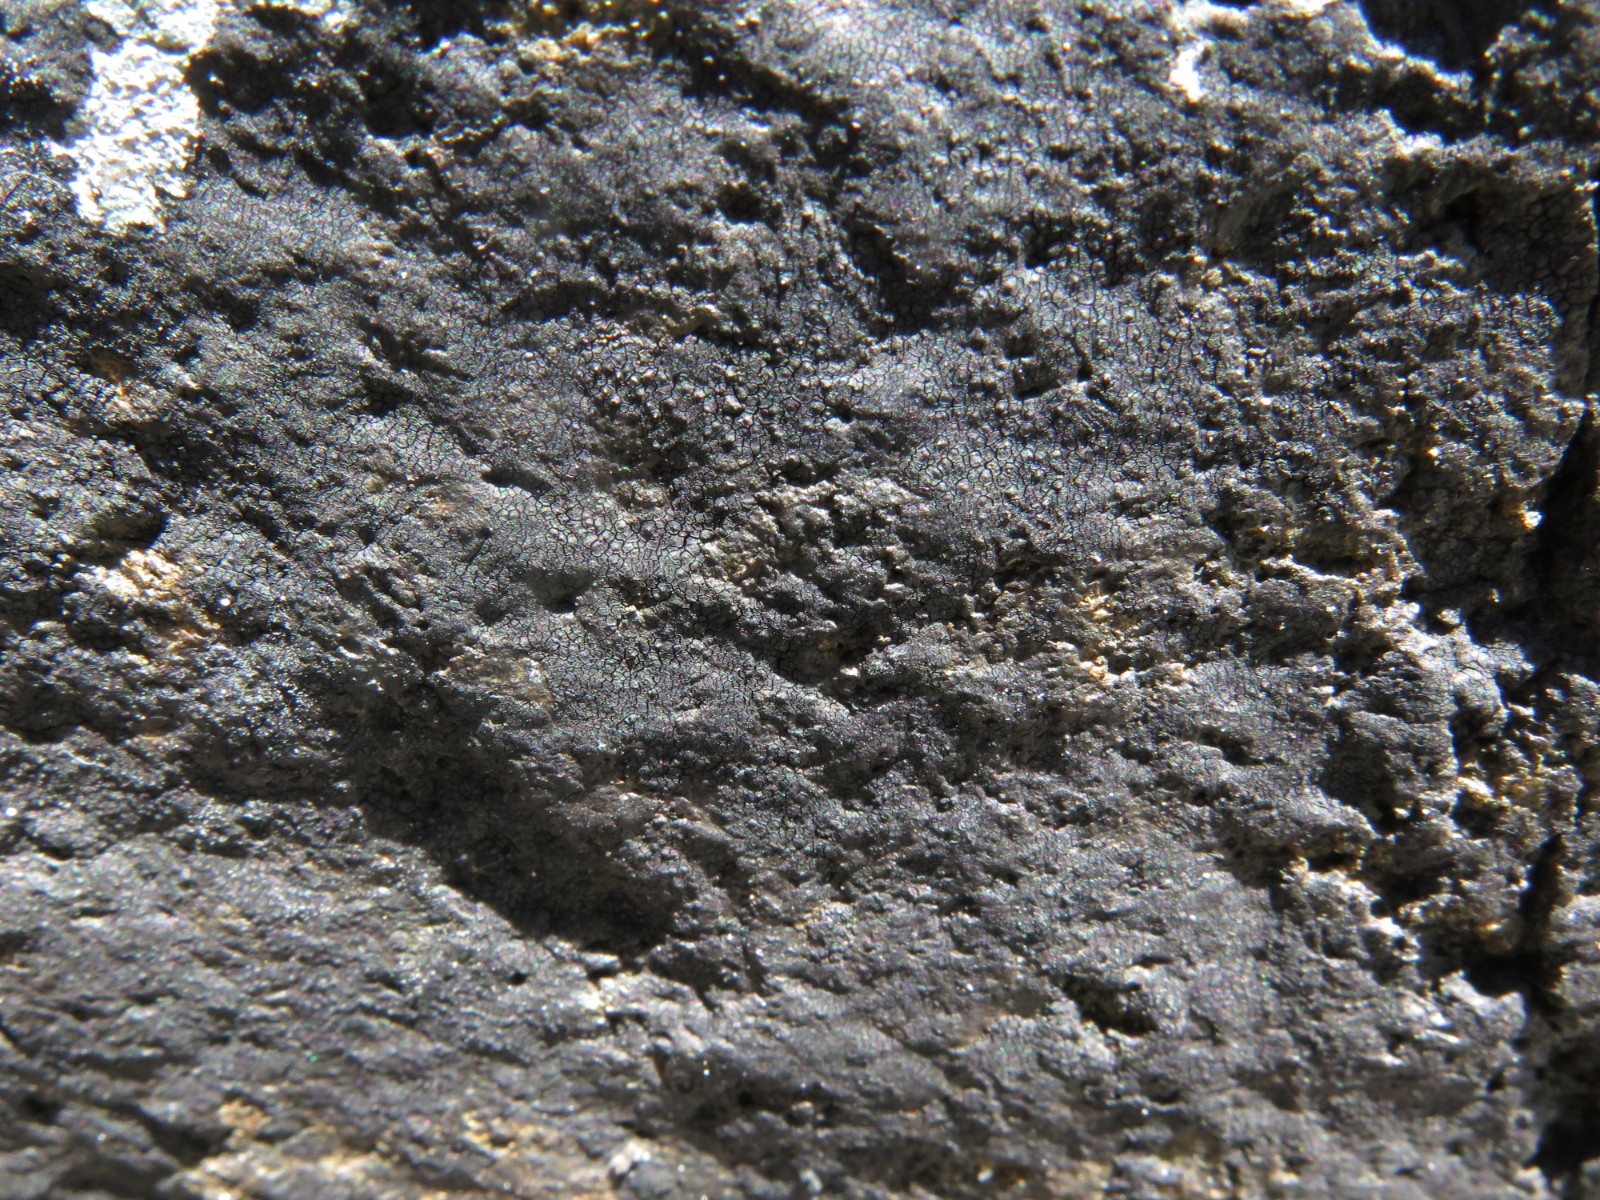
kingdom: Fungi
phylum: Ascomycota
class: Eurotiomycetes
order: Verrucariales
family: Verrucariaceae
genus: Hydropunctaria
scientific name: Hydropunctaria maura
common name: strand-vortelav
